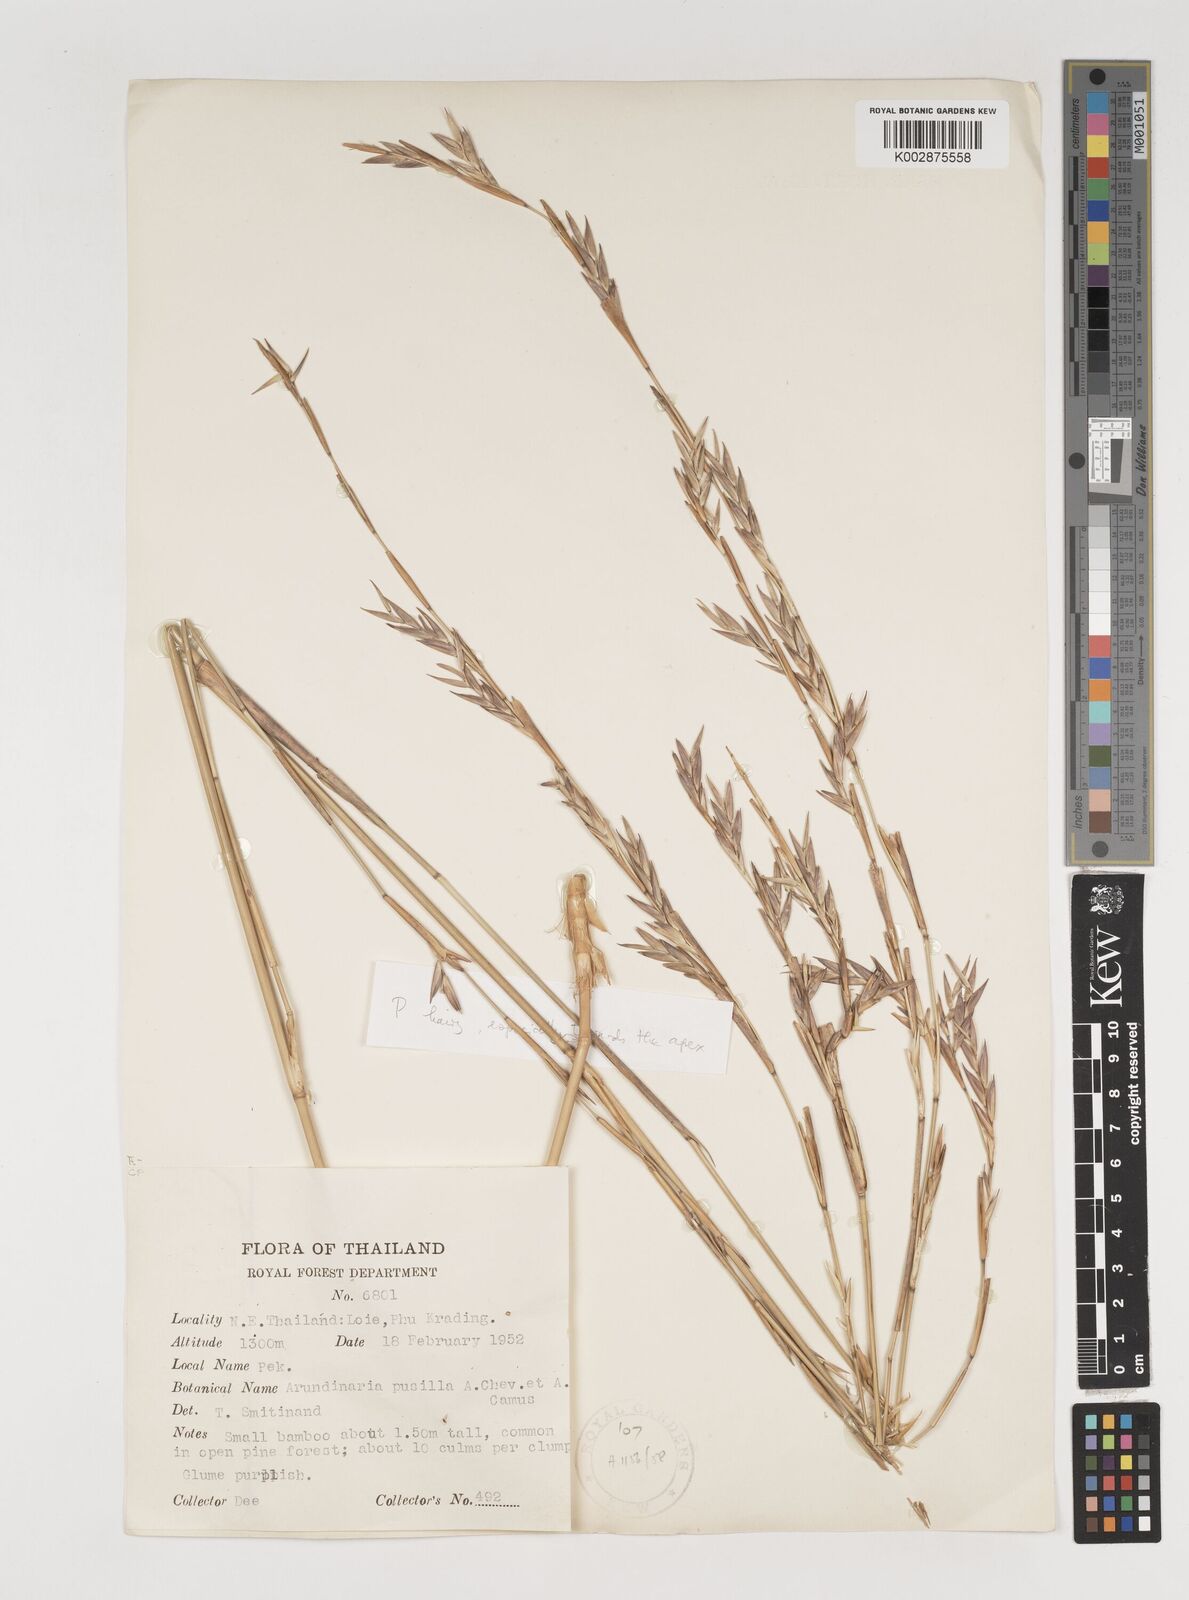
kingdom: Plantae
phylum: Tracheophyta
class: Liliopsida
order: Poales
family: Poaceae
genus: Vietnamosasa
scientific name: Vietnamosasa pusilla
